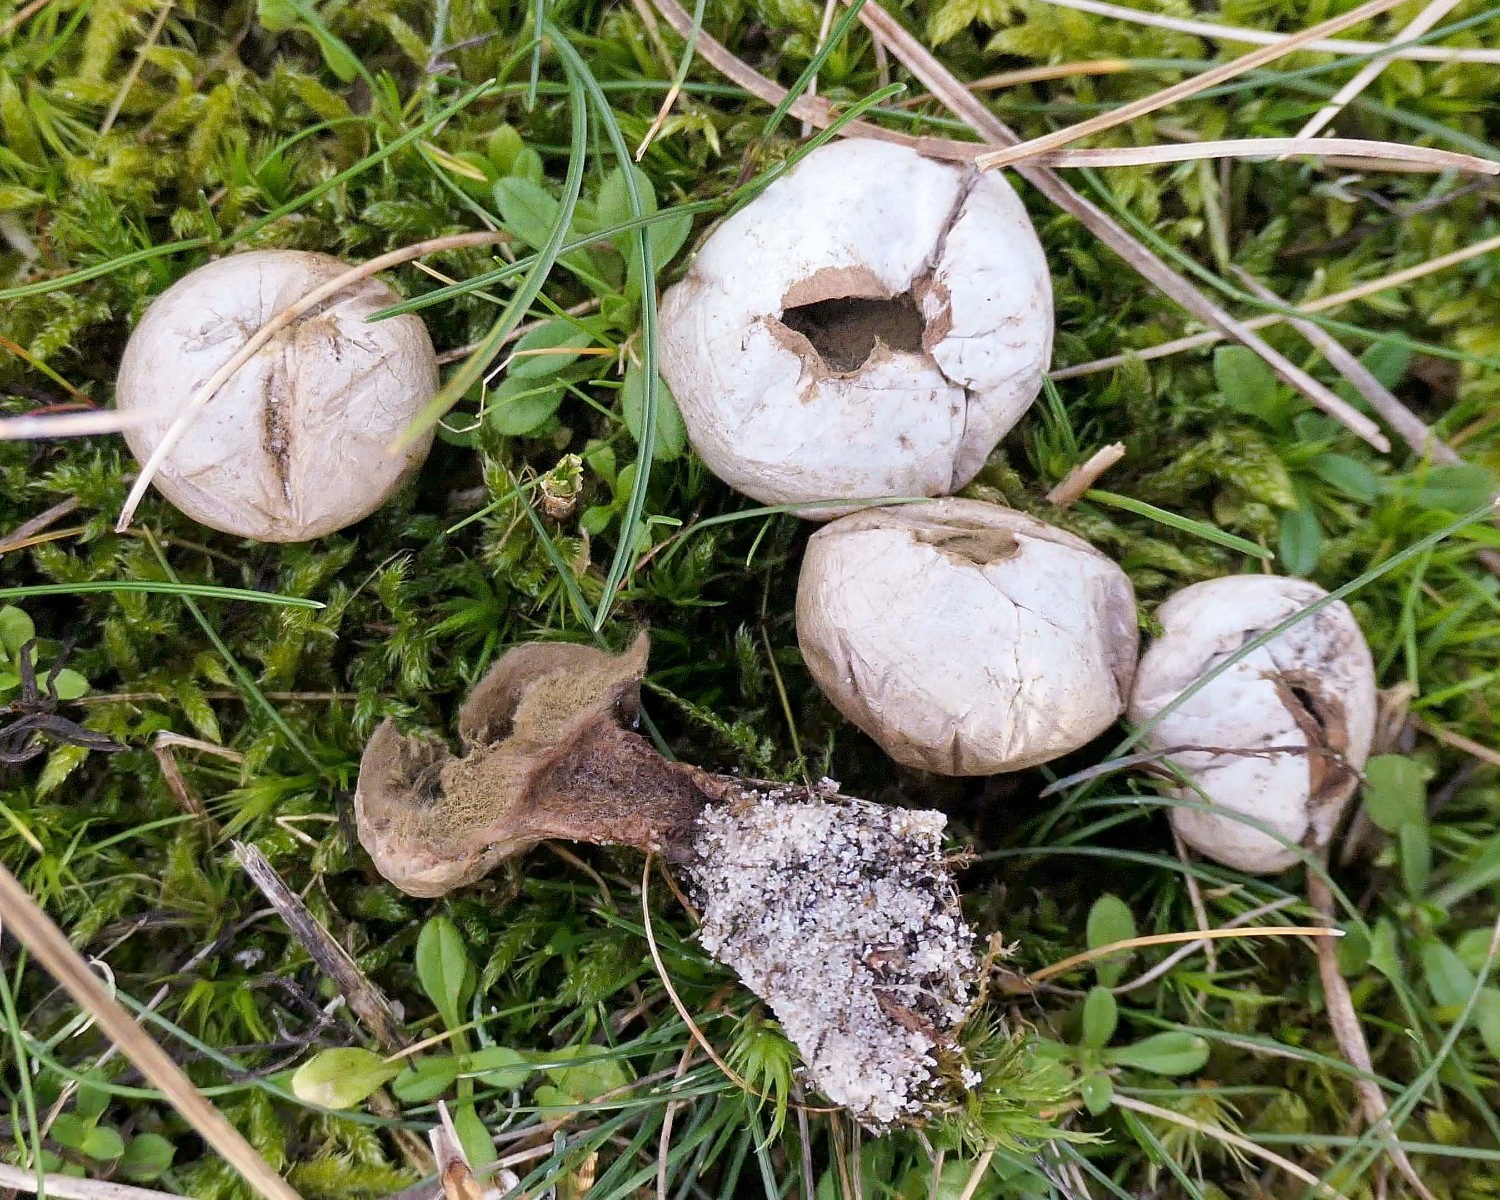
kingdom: Fungi
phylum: Basidiomycota
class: Agaricomycetes
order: Agaricales
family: Lycoperdaceae
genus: Lycoperdon
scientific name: Lycoperdon lividum
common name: mark-støvbold
